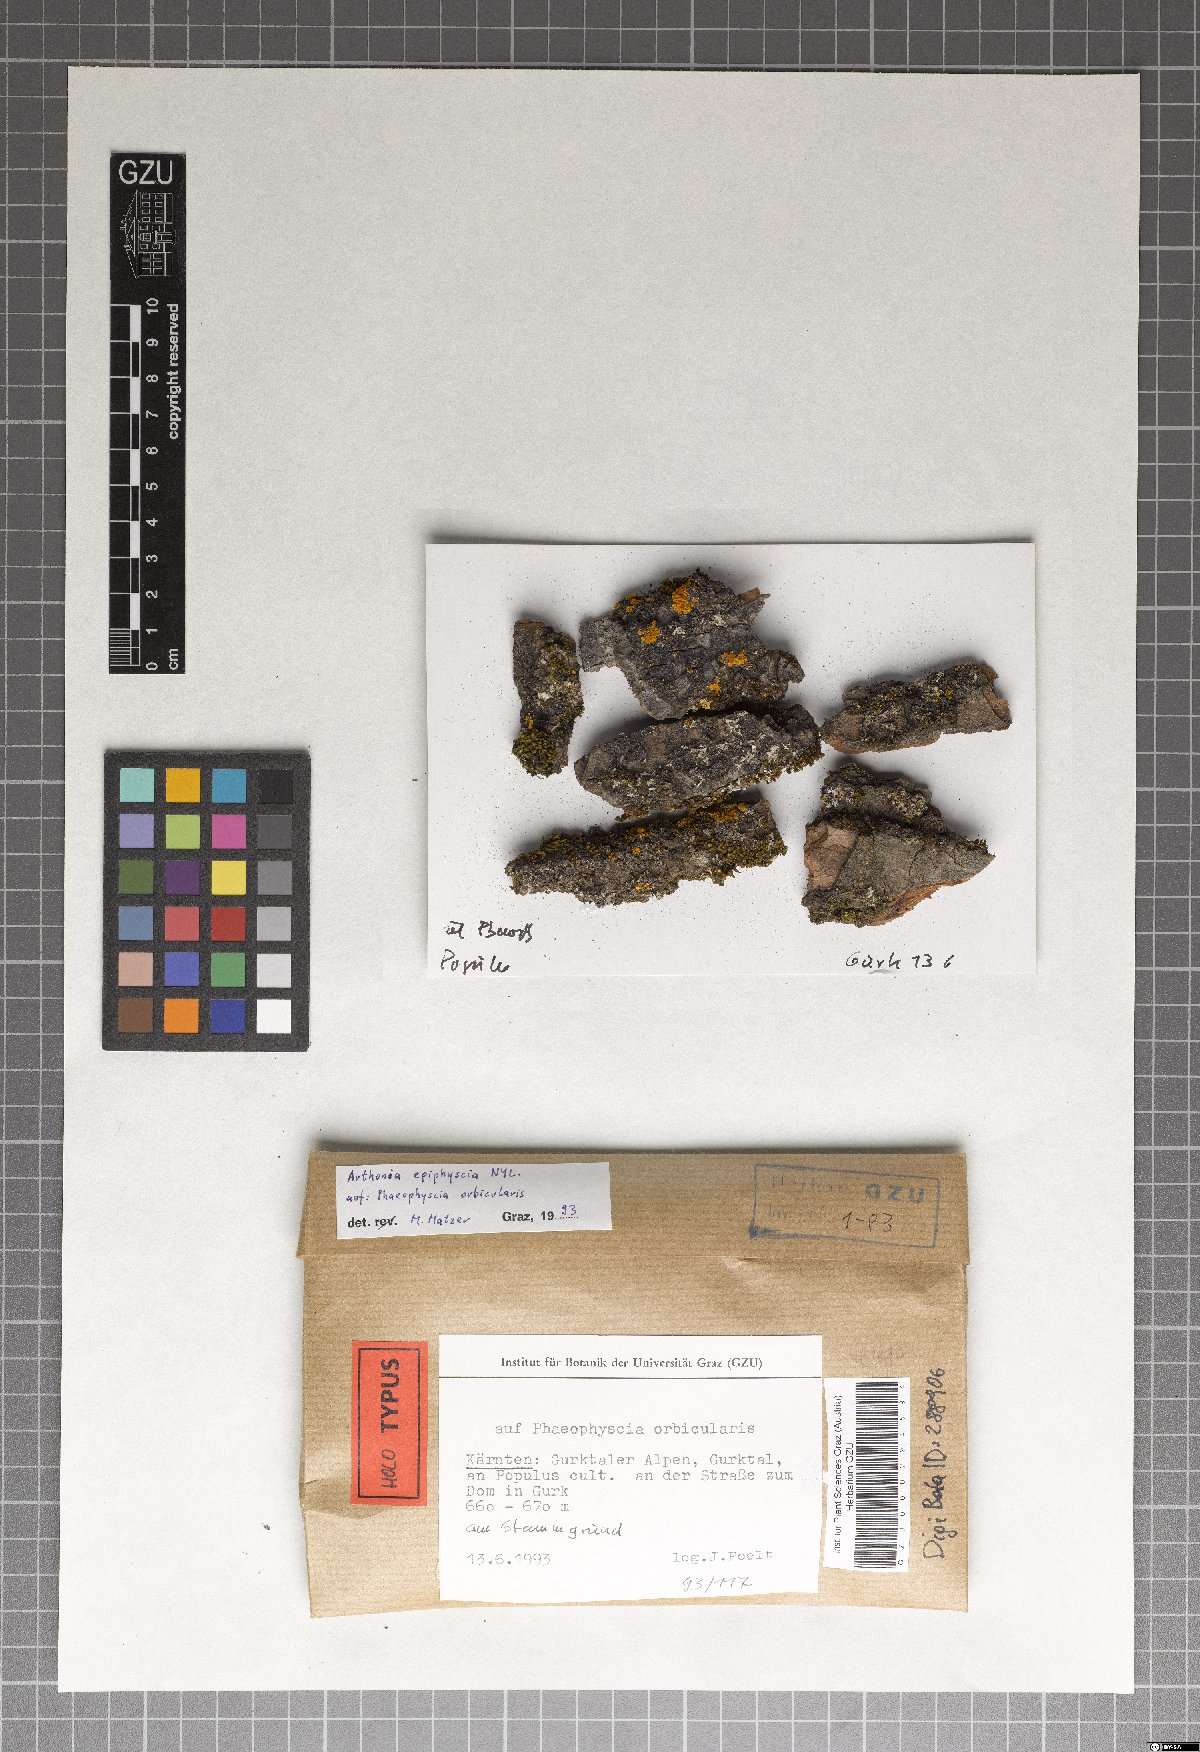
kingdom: Fungi
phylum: Ascomycota
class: Arthoniomycetes
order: Arthoniales
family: Arthoniaceae
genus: Bryostigma
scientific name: Bryostigma phaeophysciae
